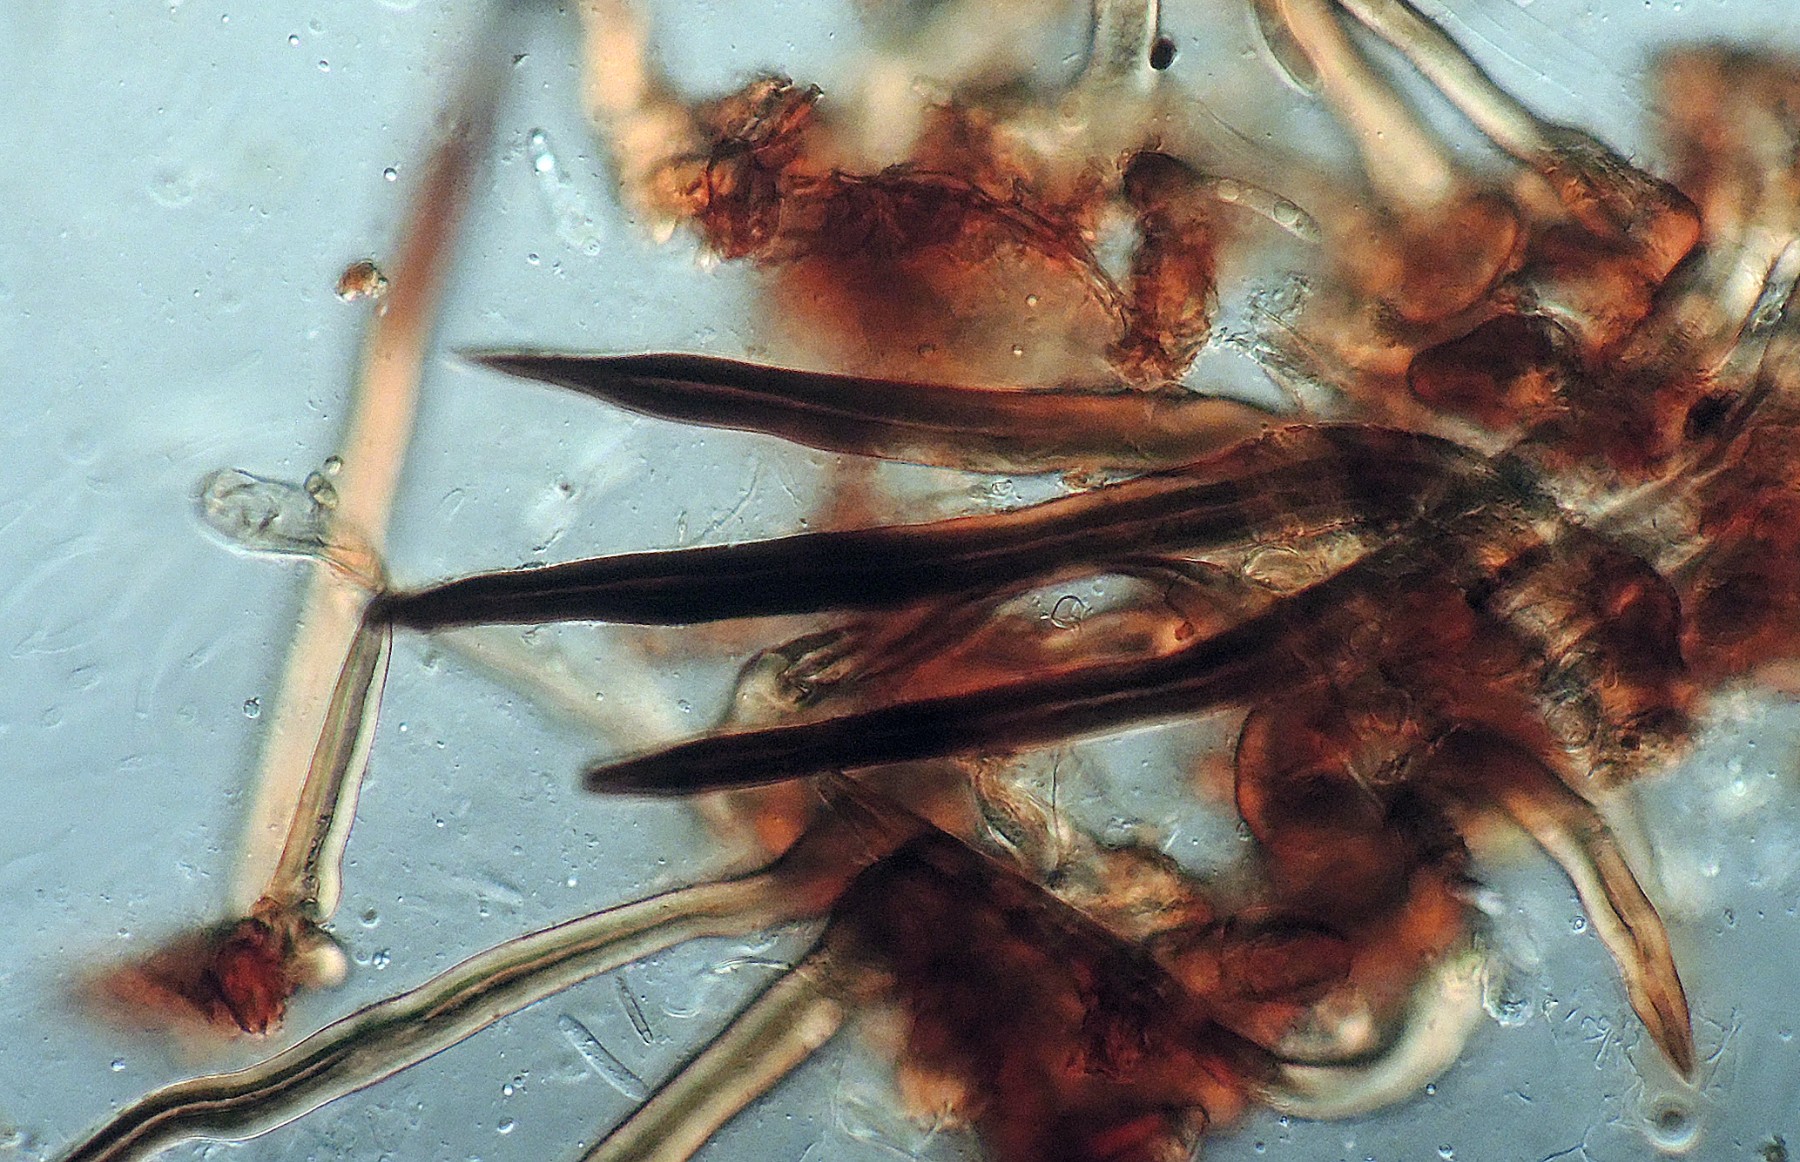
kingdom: Fungi
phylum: Ascomycota
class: Sordariomycetes
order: Sordariales
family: Helminthosphaeriaceae
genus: Echinosphaeria
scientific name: Echinosphaeria canescens
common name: brun børstekerne
